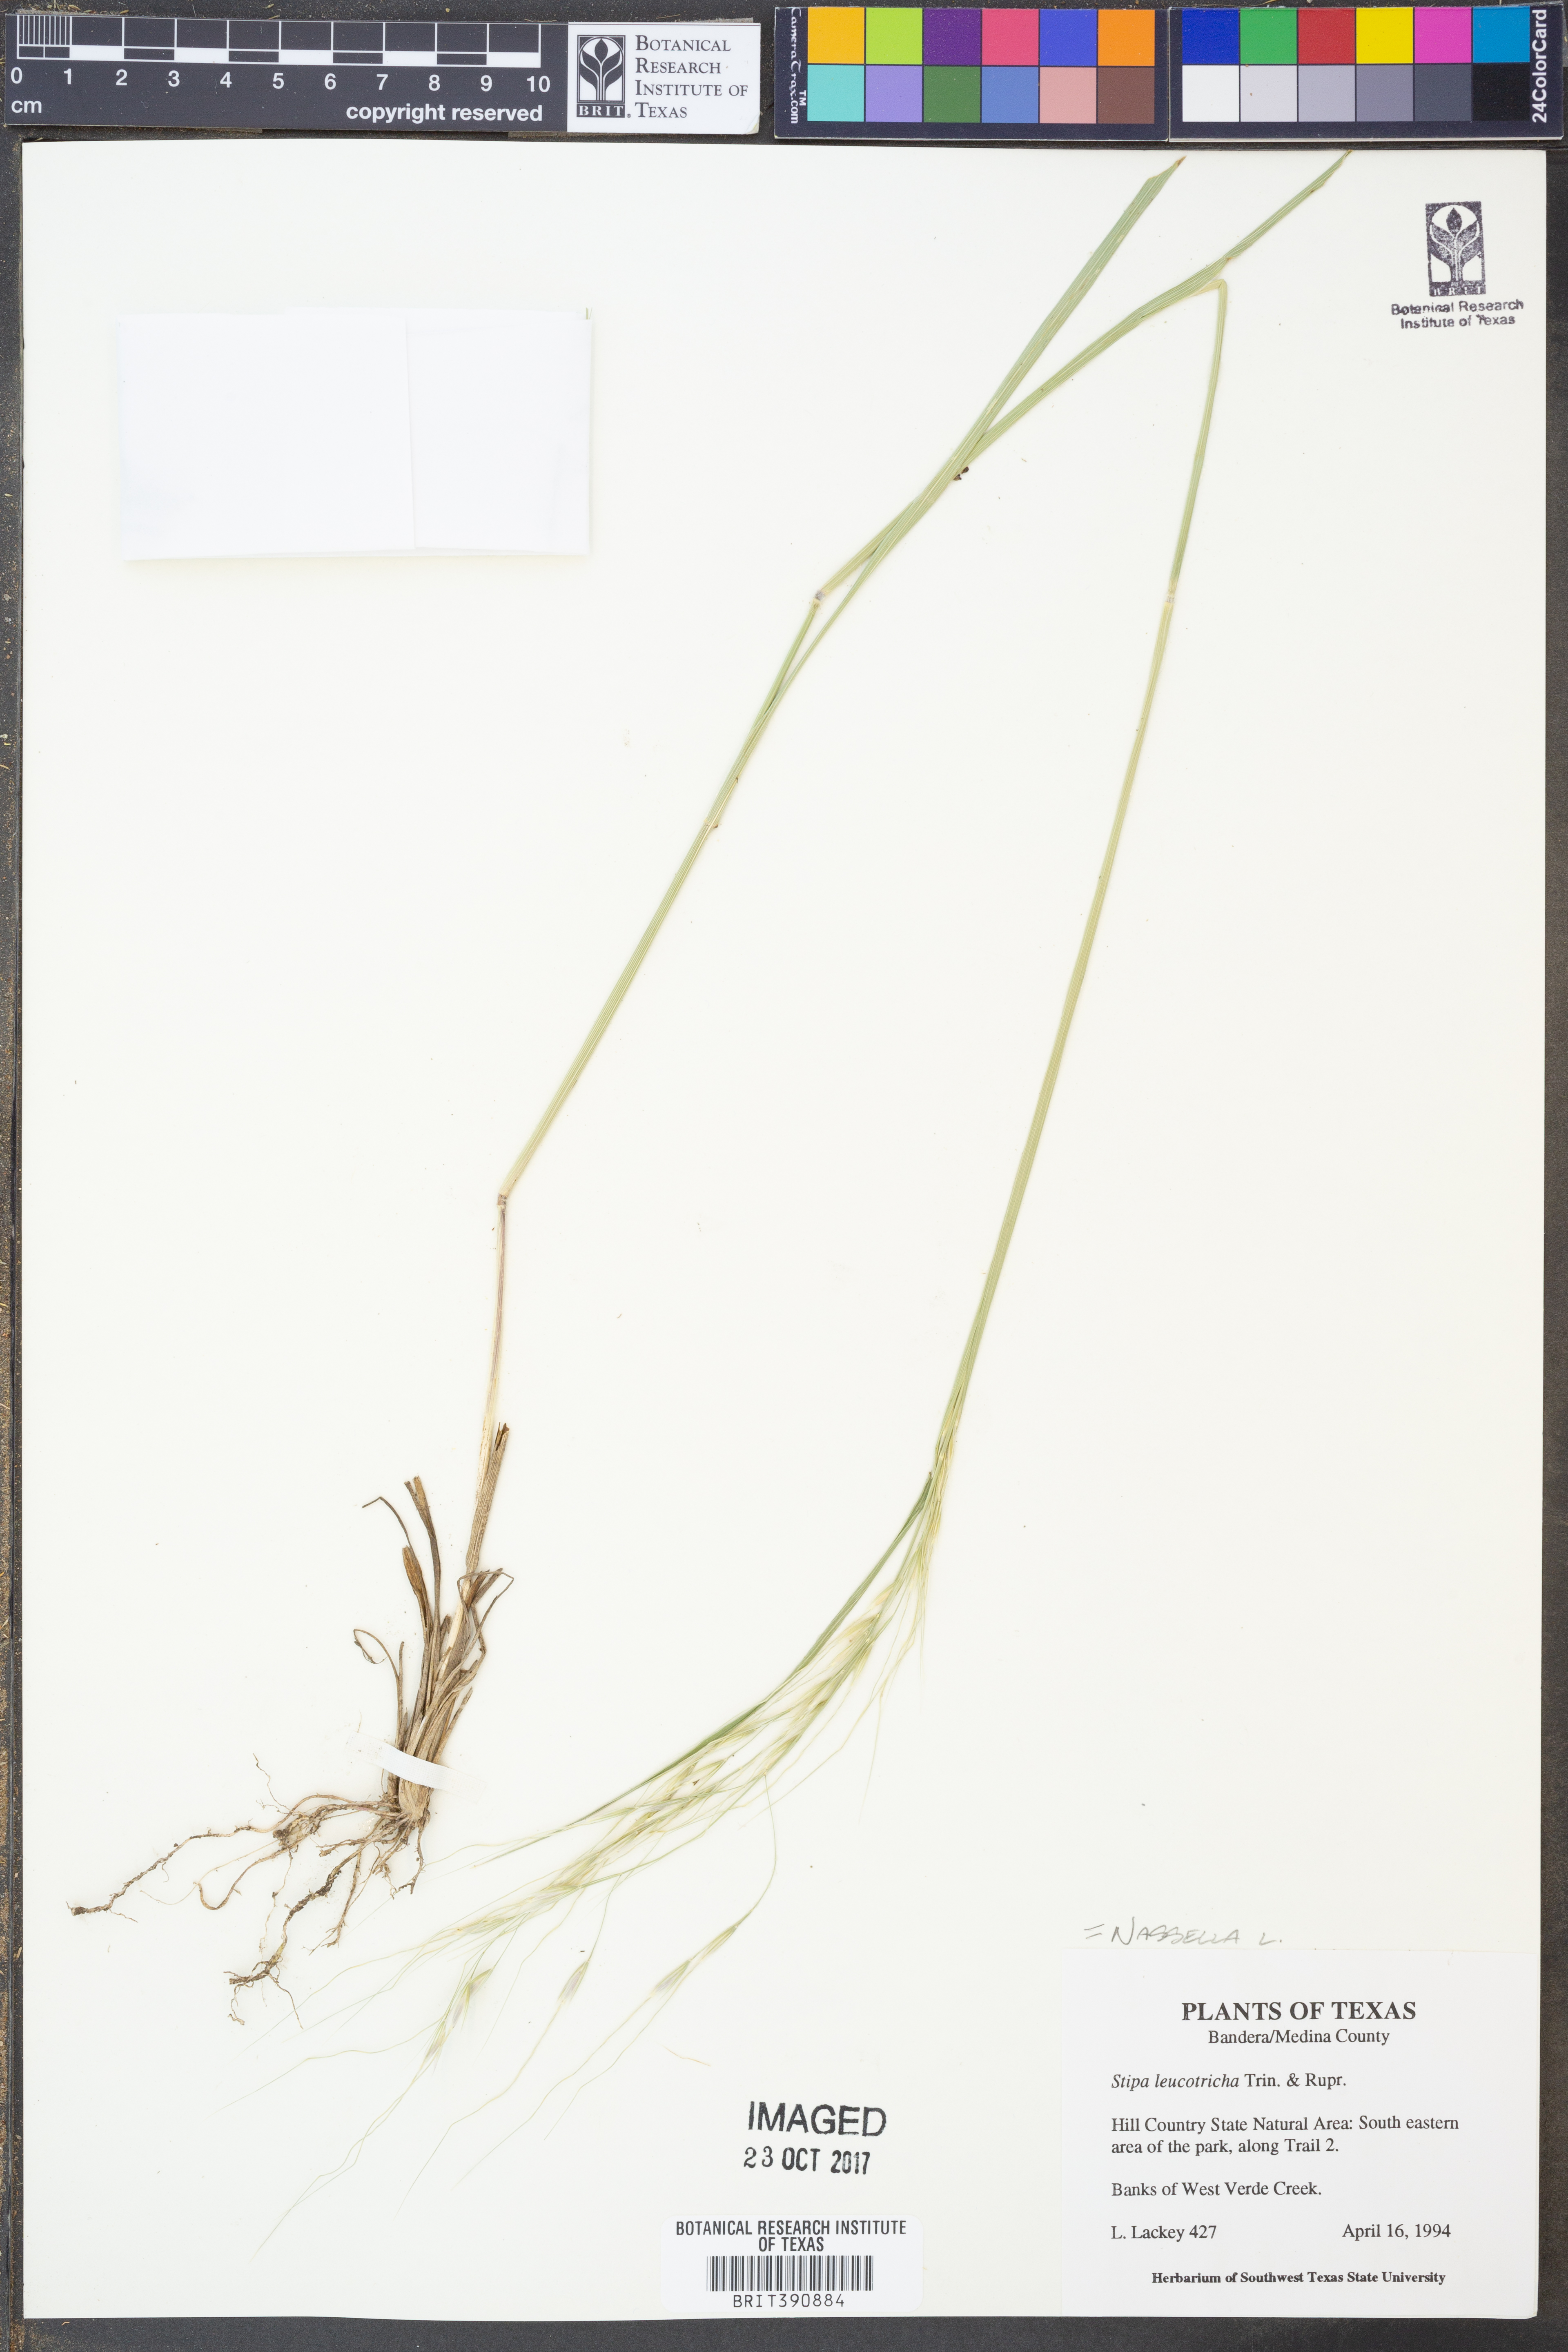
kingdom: Plantae
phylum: Tracheophyta
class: Liliopsida
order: Poales
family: Poaceae
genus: Nassella
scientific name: Nassella leucotricha
